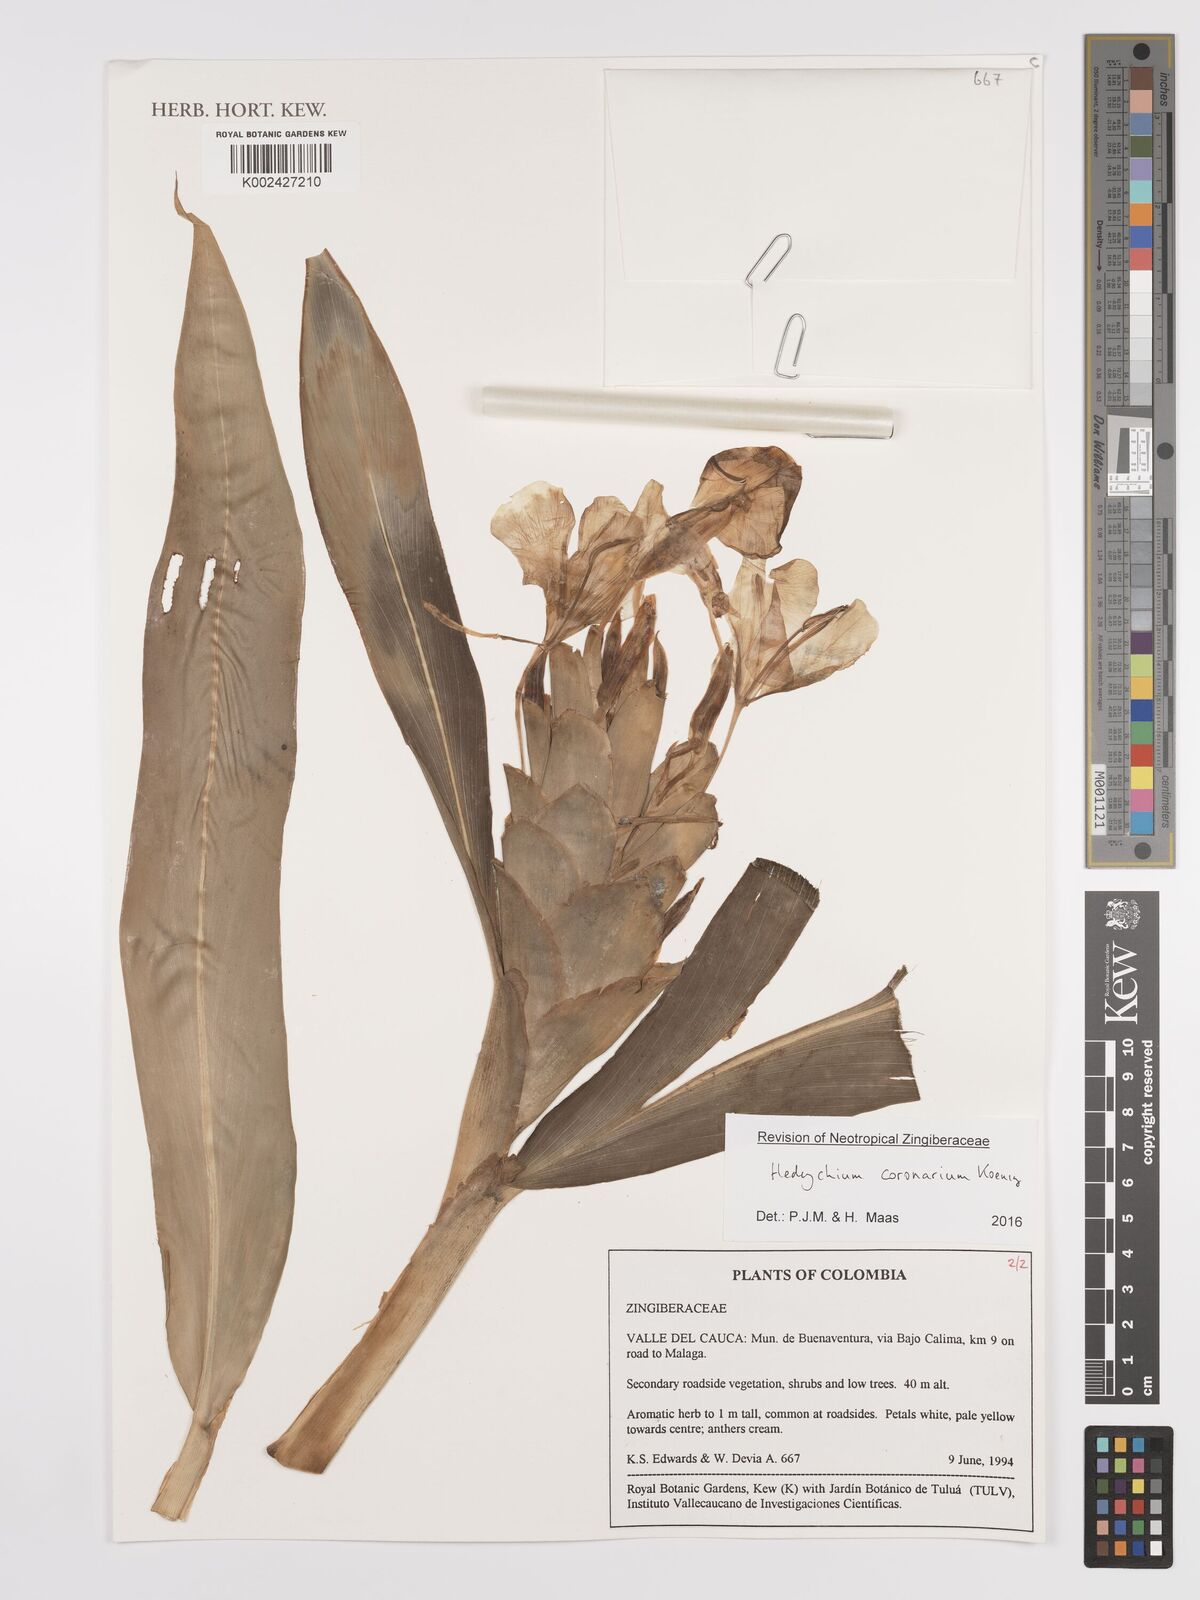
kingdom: Plantae
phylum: Tracheophyta
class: Liliopsida
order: Zingiberales
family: Zingiberaceae
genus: Hedychium
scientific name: Hedychium coronarium
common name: White garland-lily
